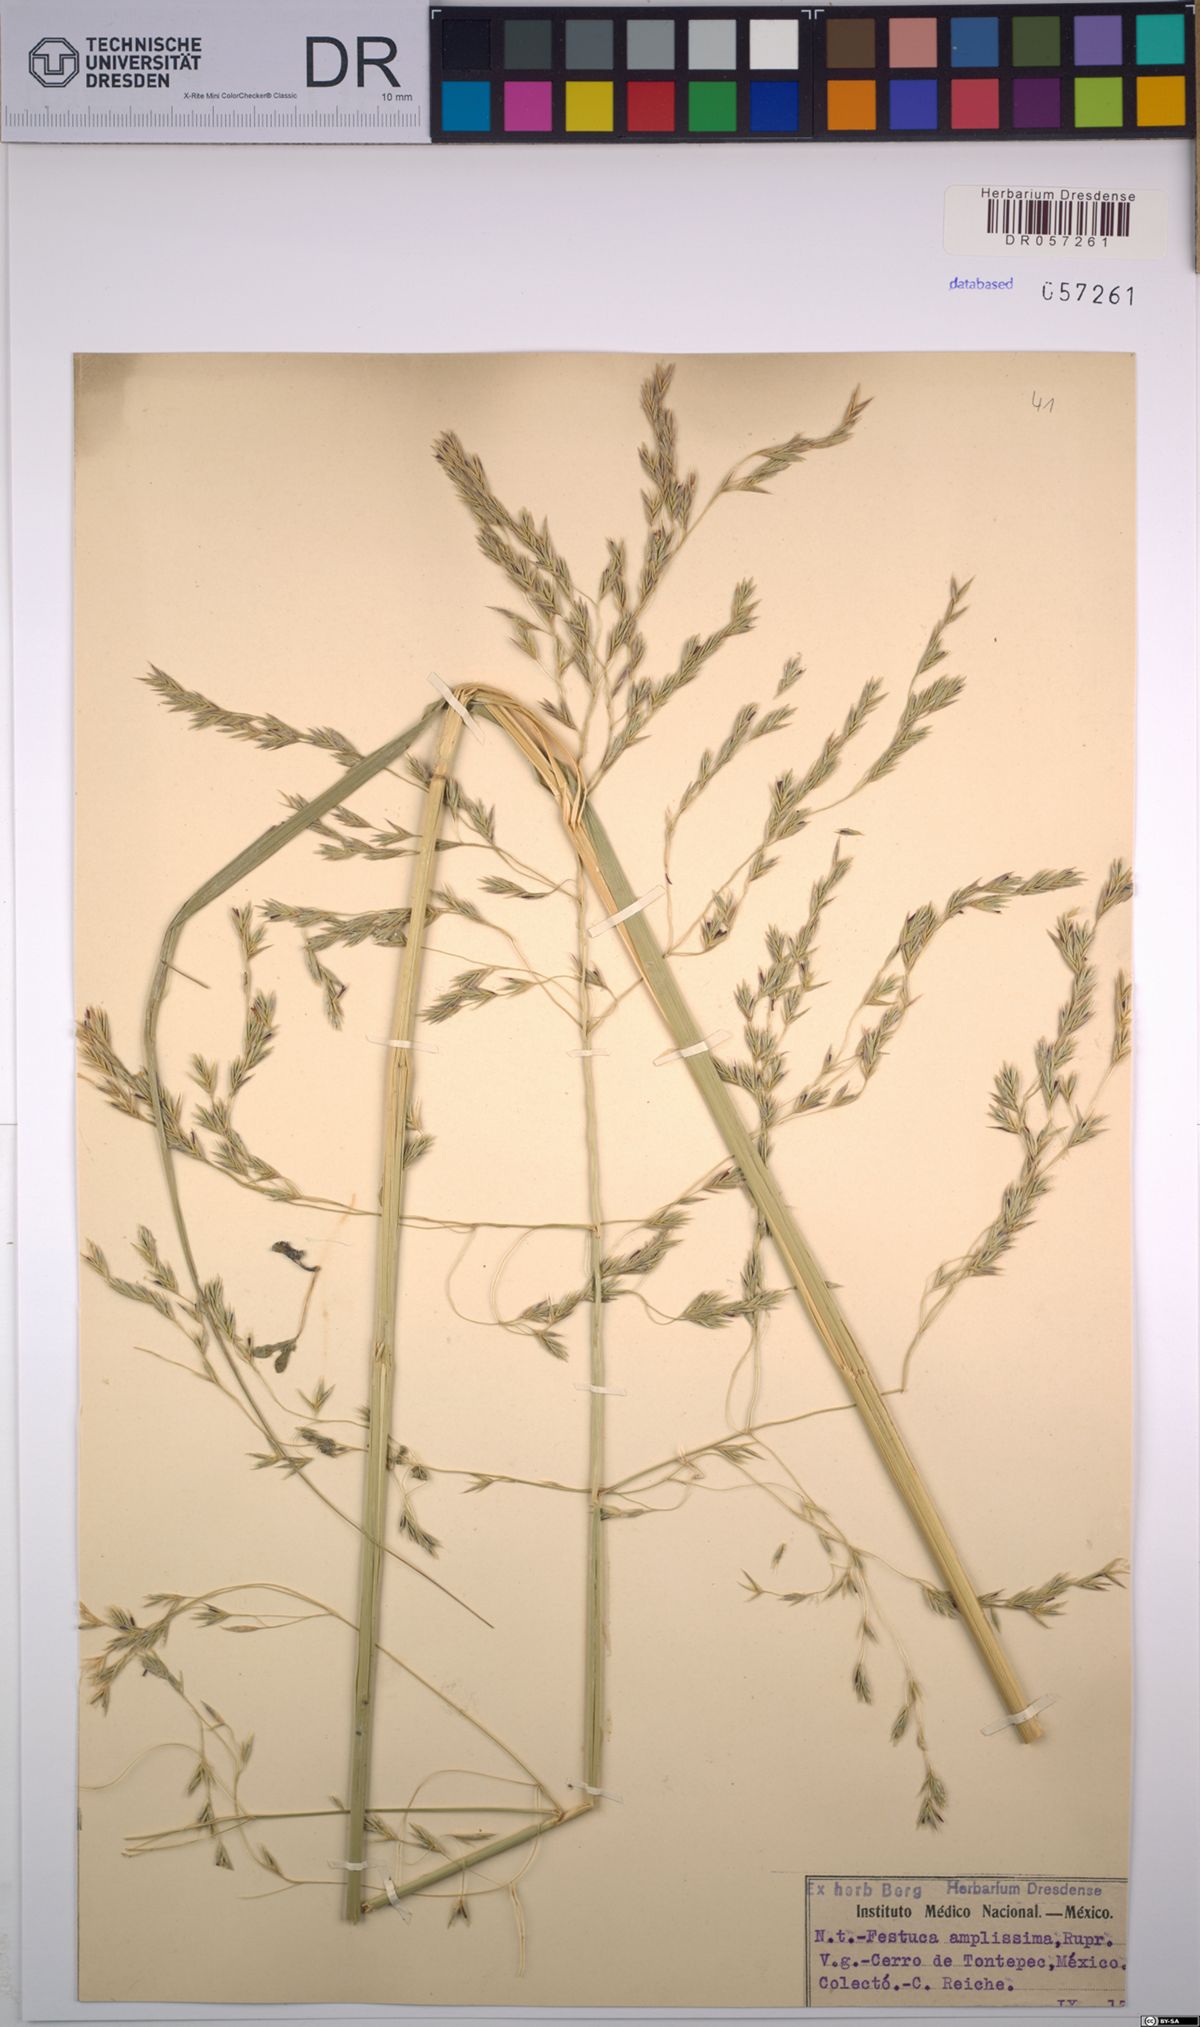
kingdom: Plantae
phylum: Tracheophyta
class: Liliopsida
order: Poales
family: Poaceae
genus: Festuca
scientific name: Festuca amplissima
